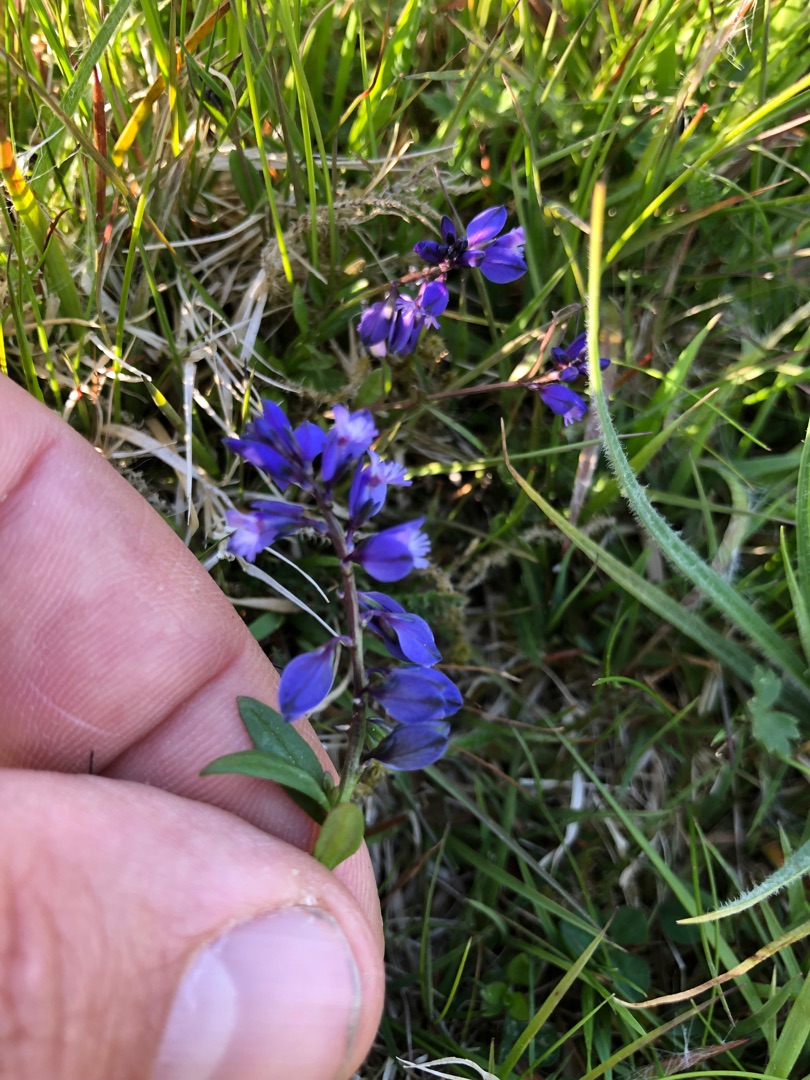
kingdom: Plantae
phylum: Tracheophyta
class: Magnoliopsida
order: Fabales
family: Polygalaceae
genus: Polygala
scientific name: Polygala vulgaris
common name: Almindelig mælkeurt
